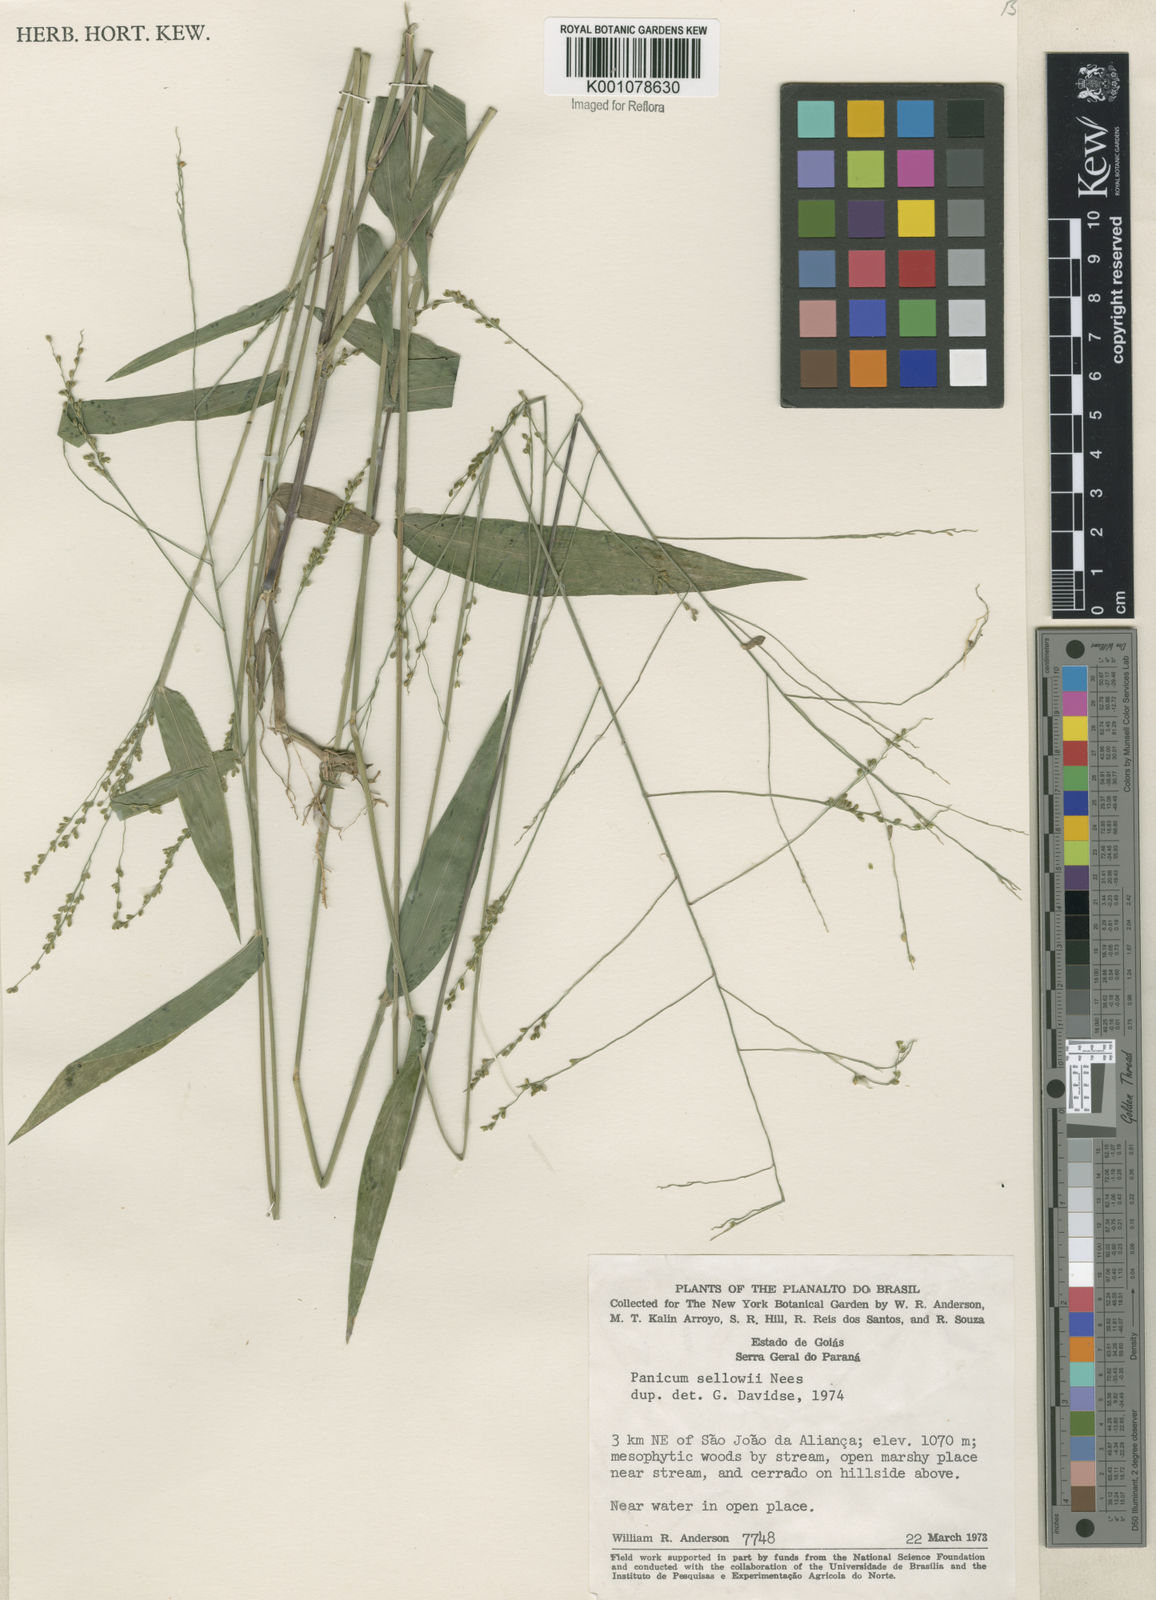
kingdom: Plantae
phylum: Tracheophyta
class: Liliopsida
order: Poales
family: Poaceae
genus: Panicum
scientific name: Panicum sellowii
